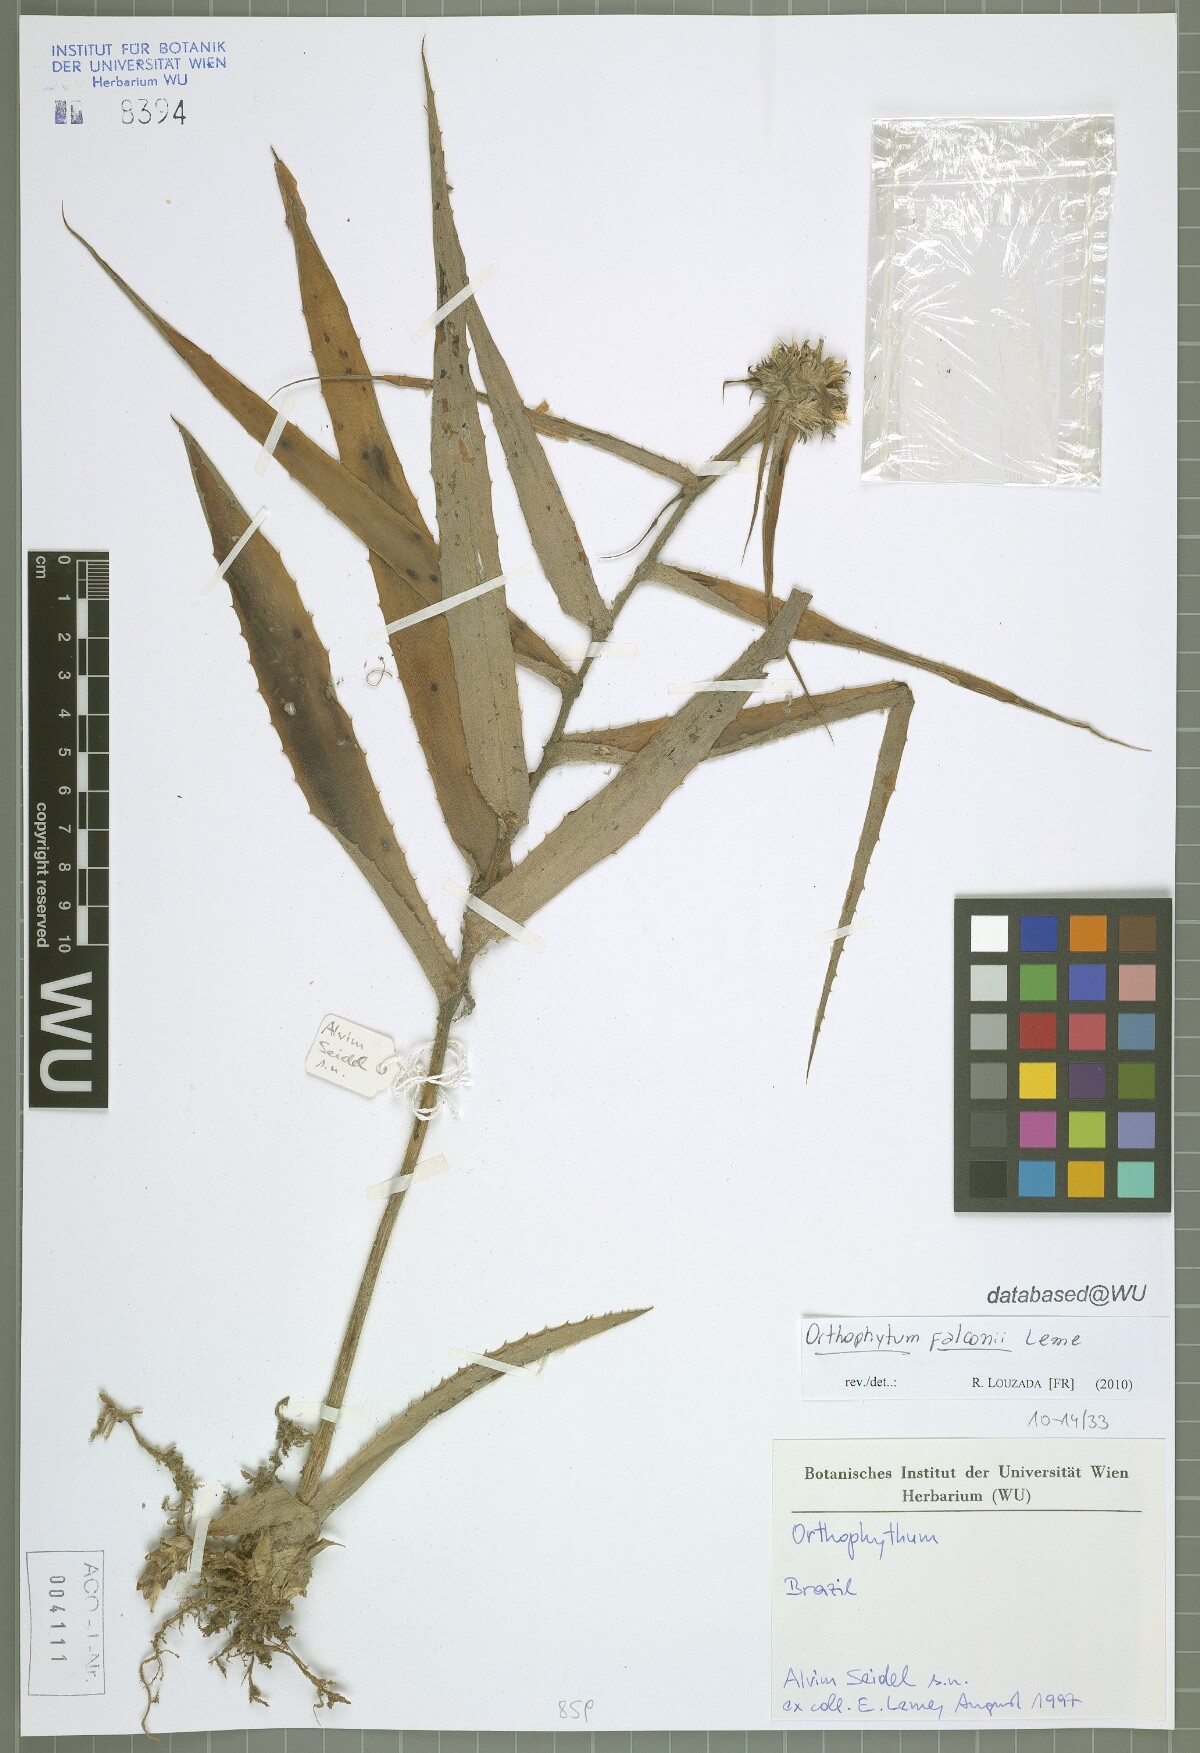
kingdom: Plantae
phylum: Tracheophyta
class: Liliopsida
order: Poales
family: Bromeliaceae
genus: Orthophytum
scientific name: Orthophytum falconii
